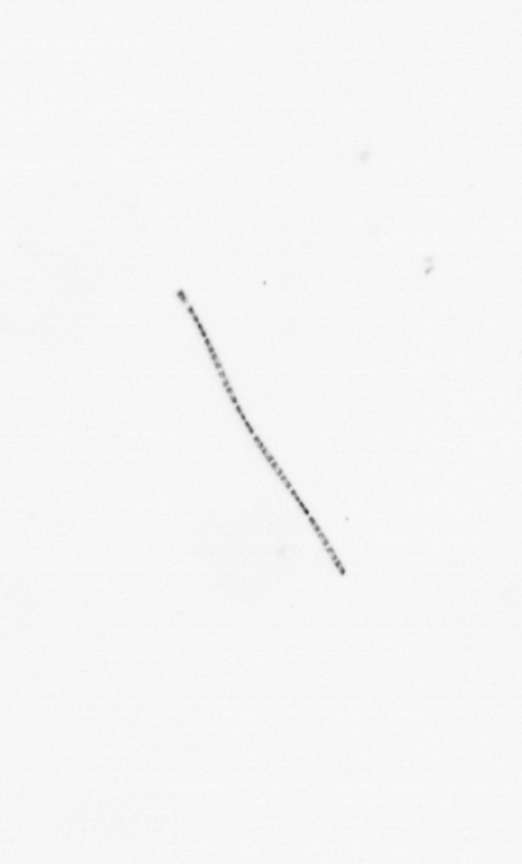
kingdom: Chromista
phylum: Ochrophyta
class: Bacillariophyceae
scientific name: Bacillariophyceae
